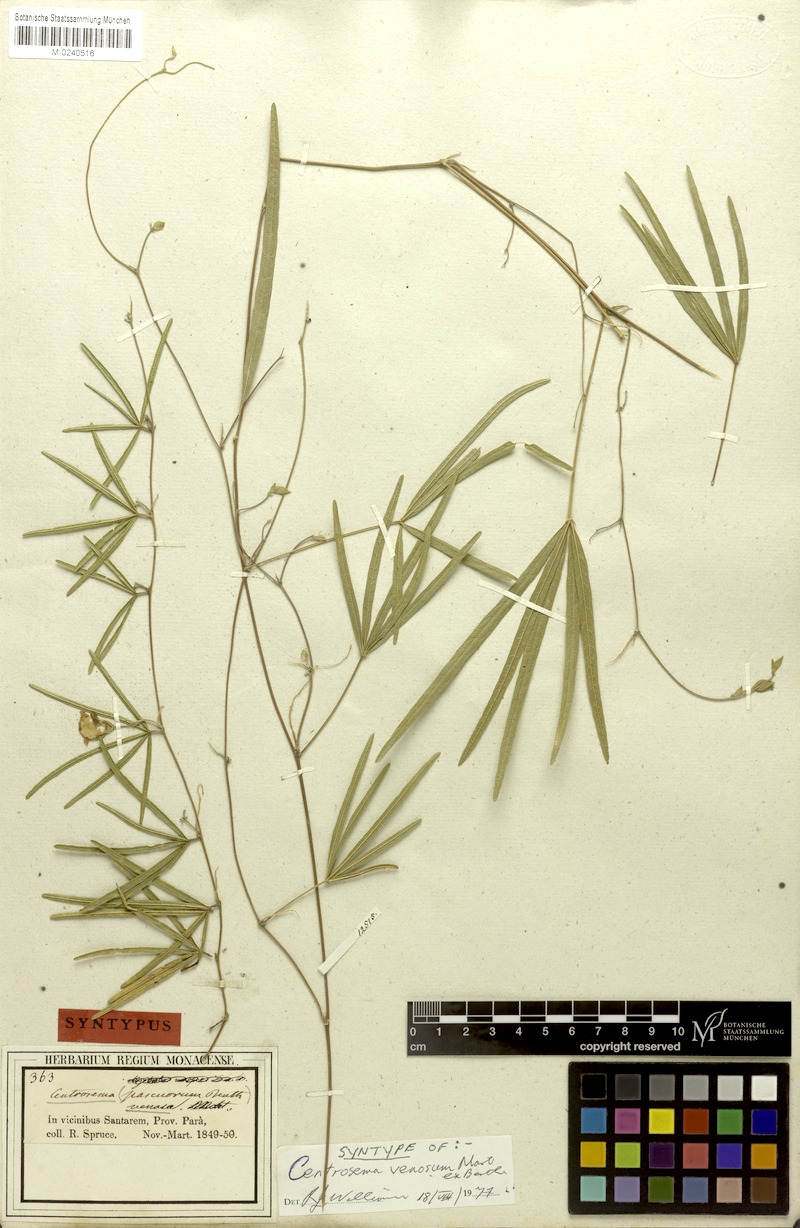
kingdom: Plantae
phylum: Tracheophyta
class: Magnoliopsida
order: Fabales
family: Fabaceae
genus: Centrosema
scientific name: Centrosema vetulum
